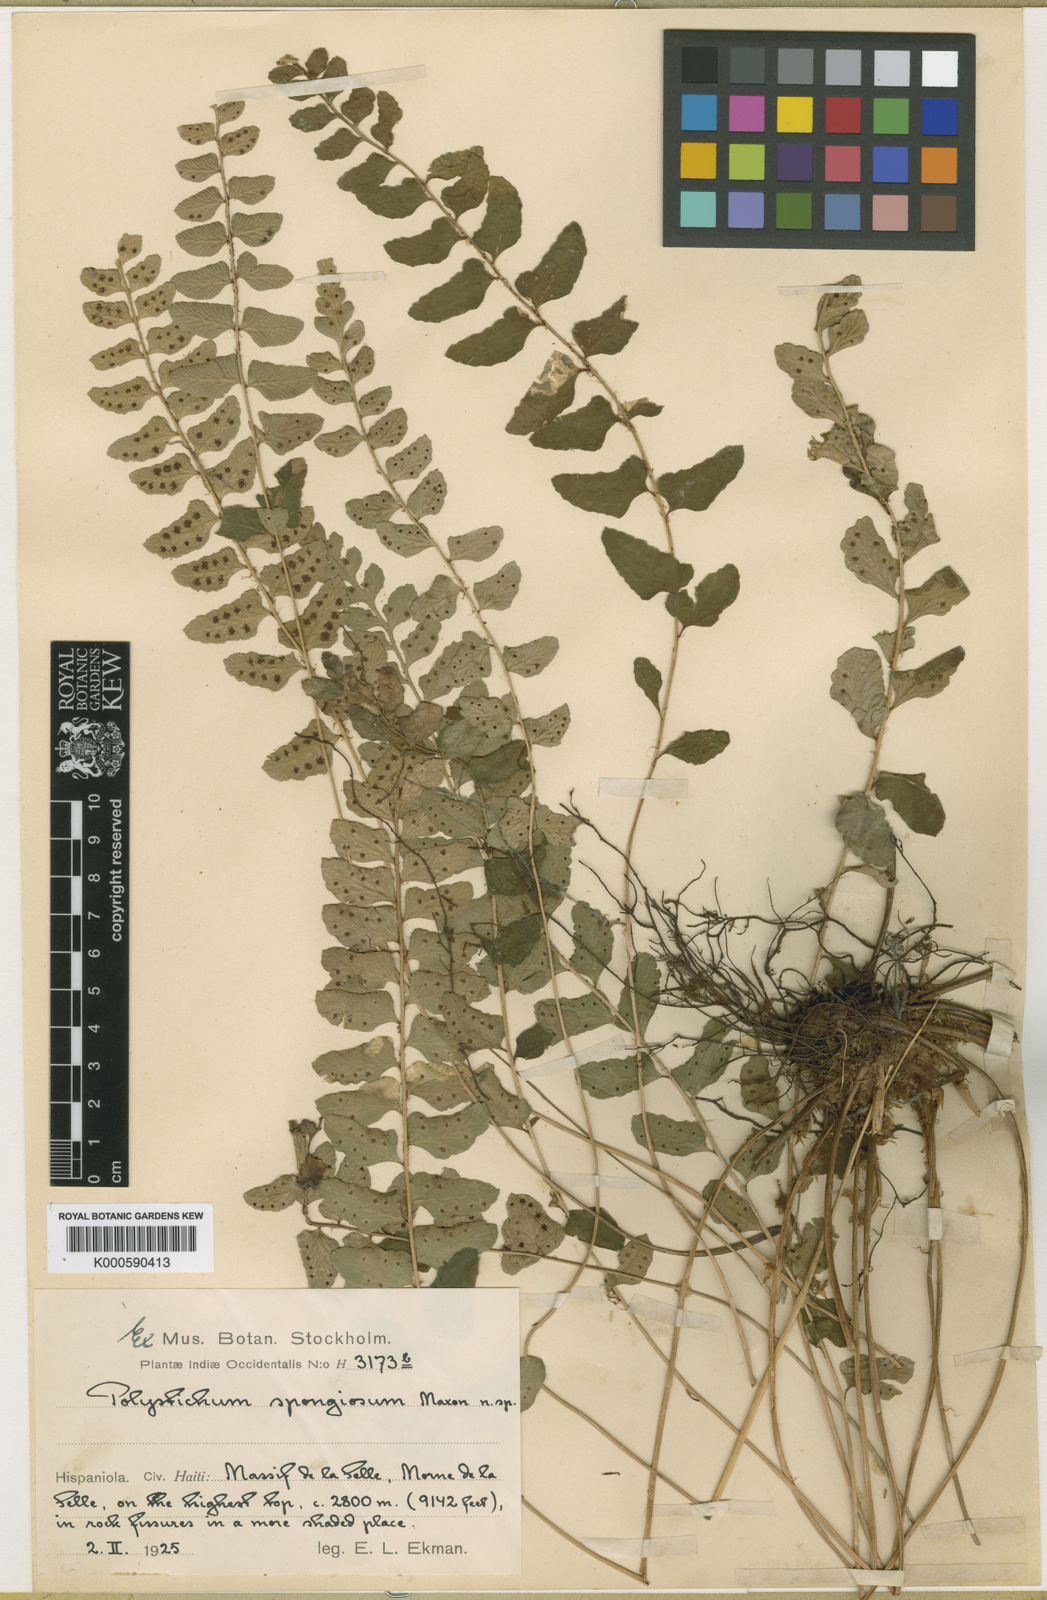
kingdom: Plantae
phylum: Tracheophyta
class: Polypodiopsida
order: Polypodiales
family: Dryopteridaceae
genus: Polystichum
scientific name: Polystichum spongiosum
